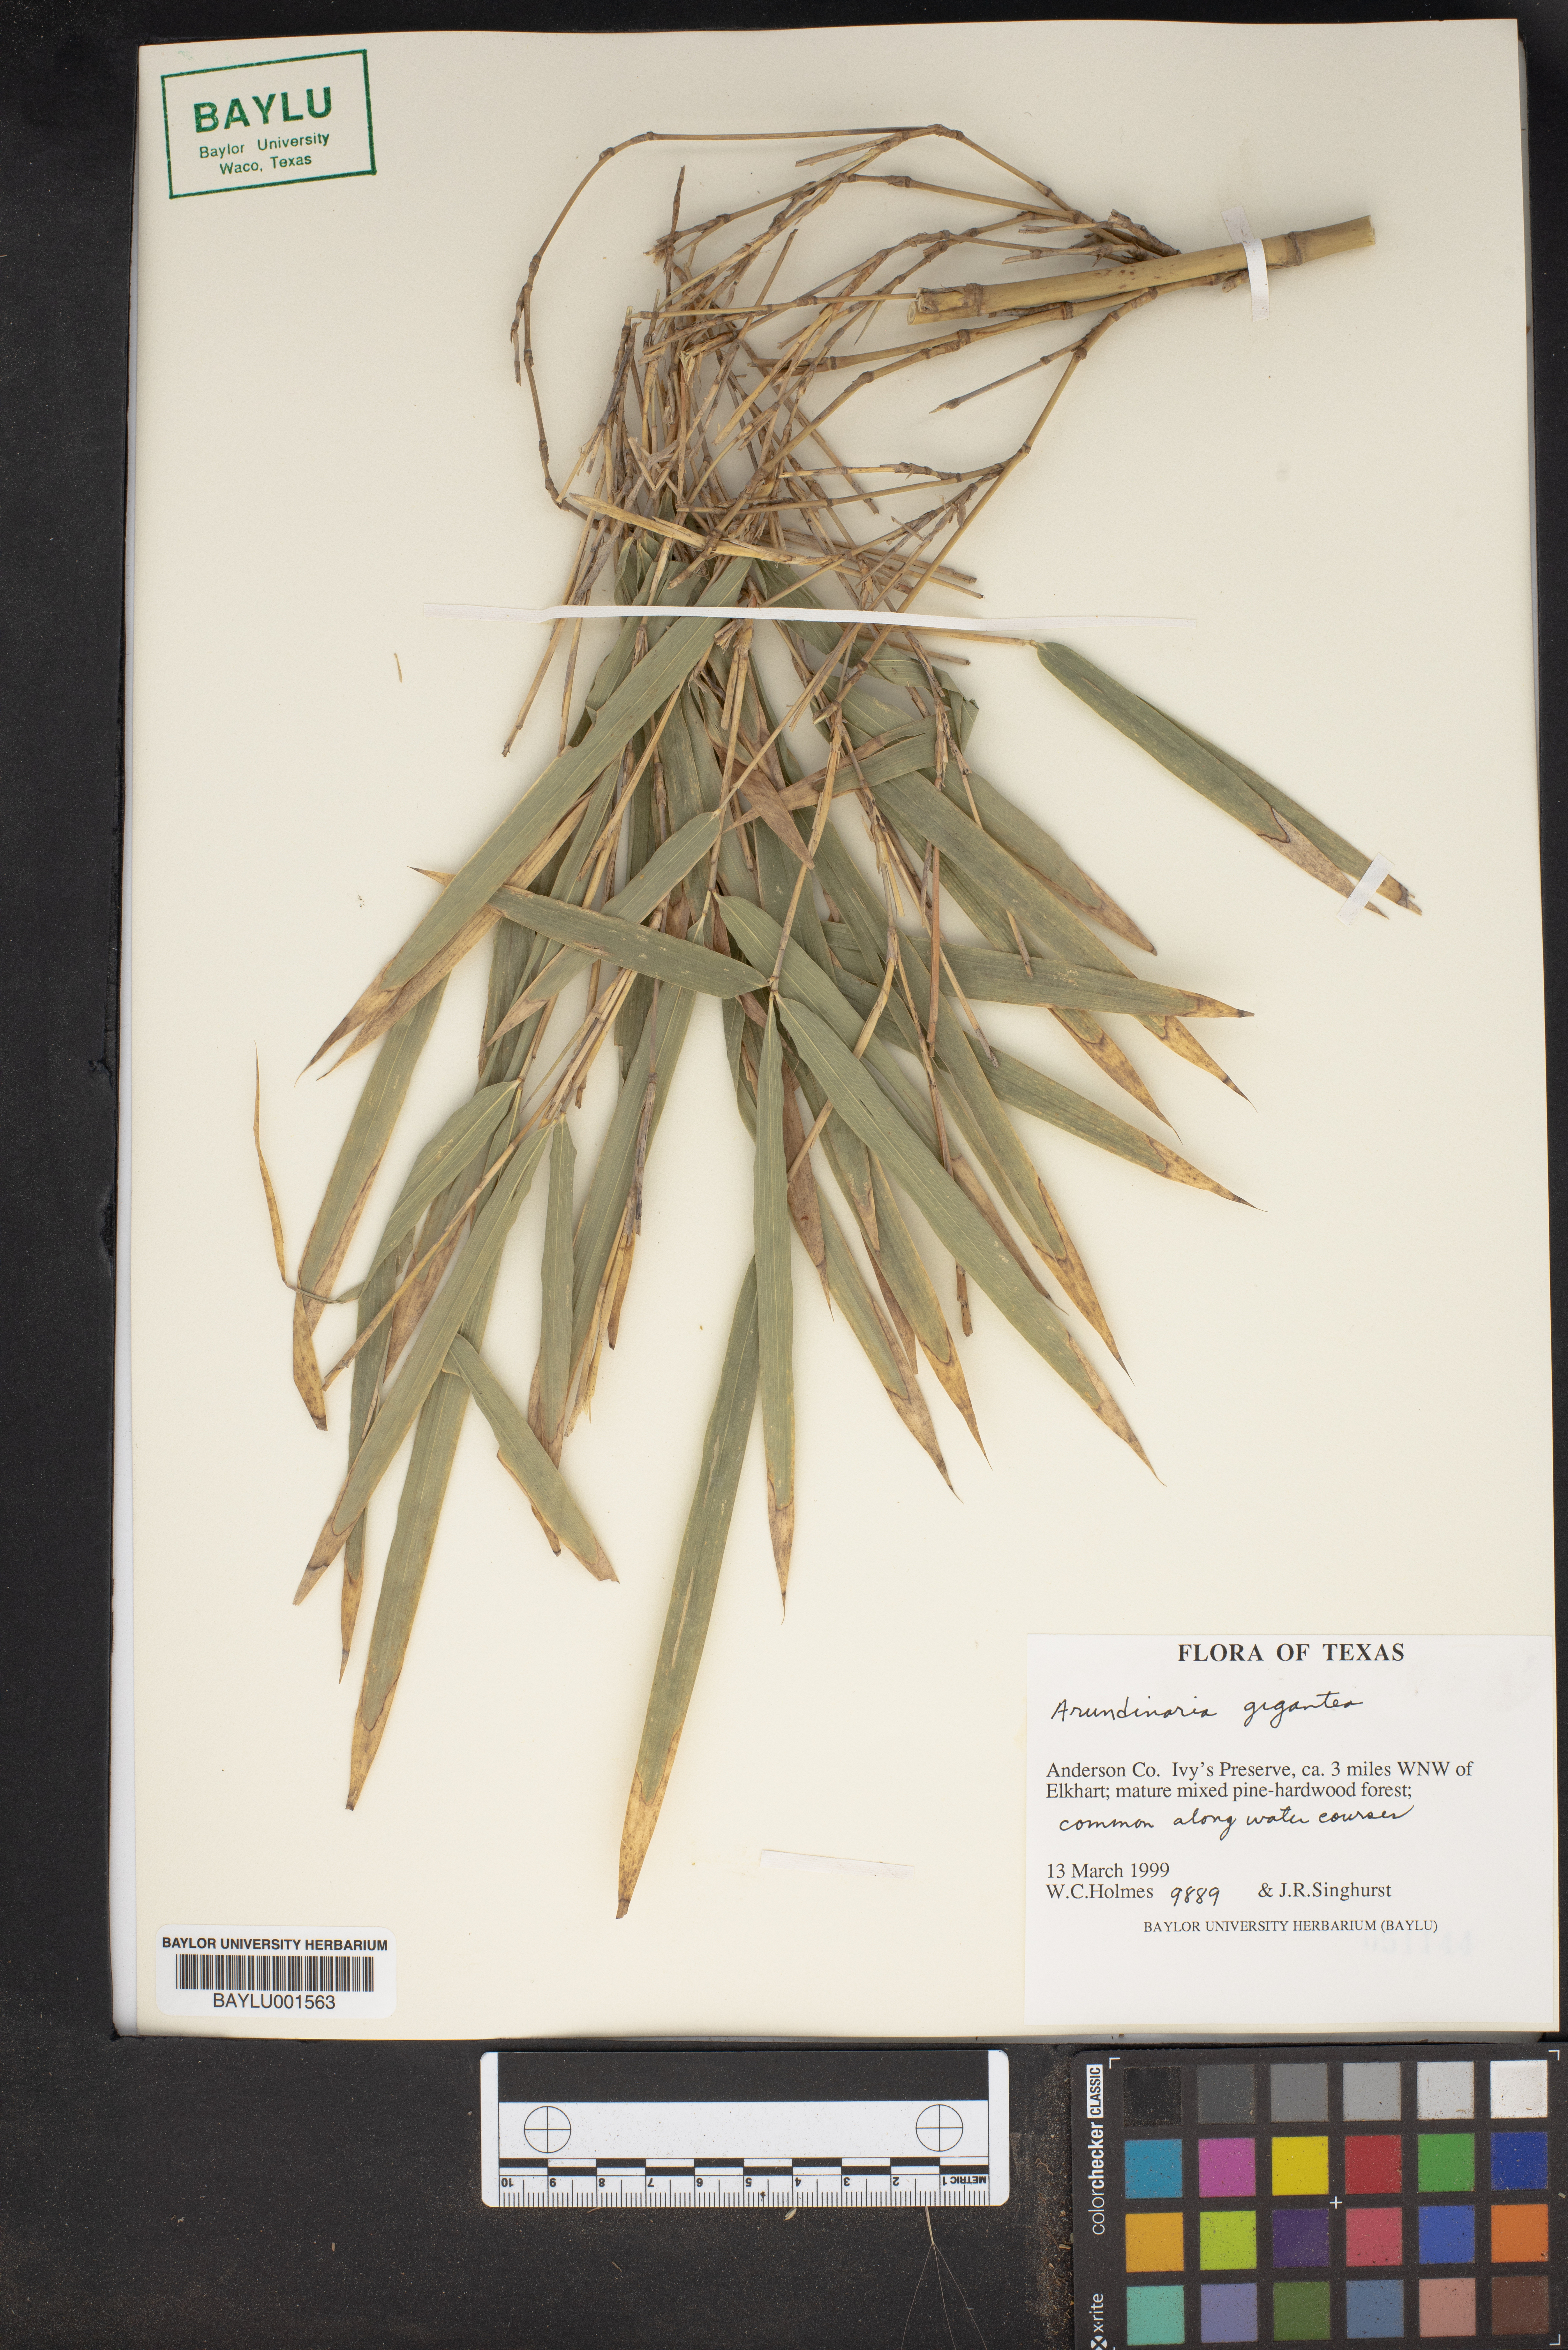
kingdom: Plantae
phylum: Tracheophyta
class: Liliopsida
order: Poales
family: Poaceae
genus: Arundinaria
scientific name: Arundinaria gigantea
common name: Giant cane
